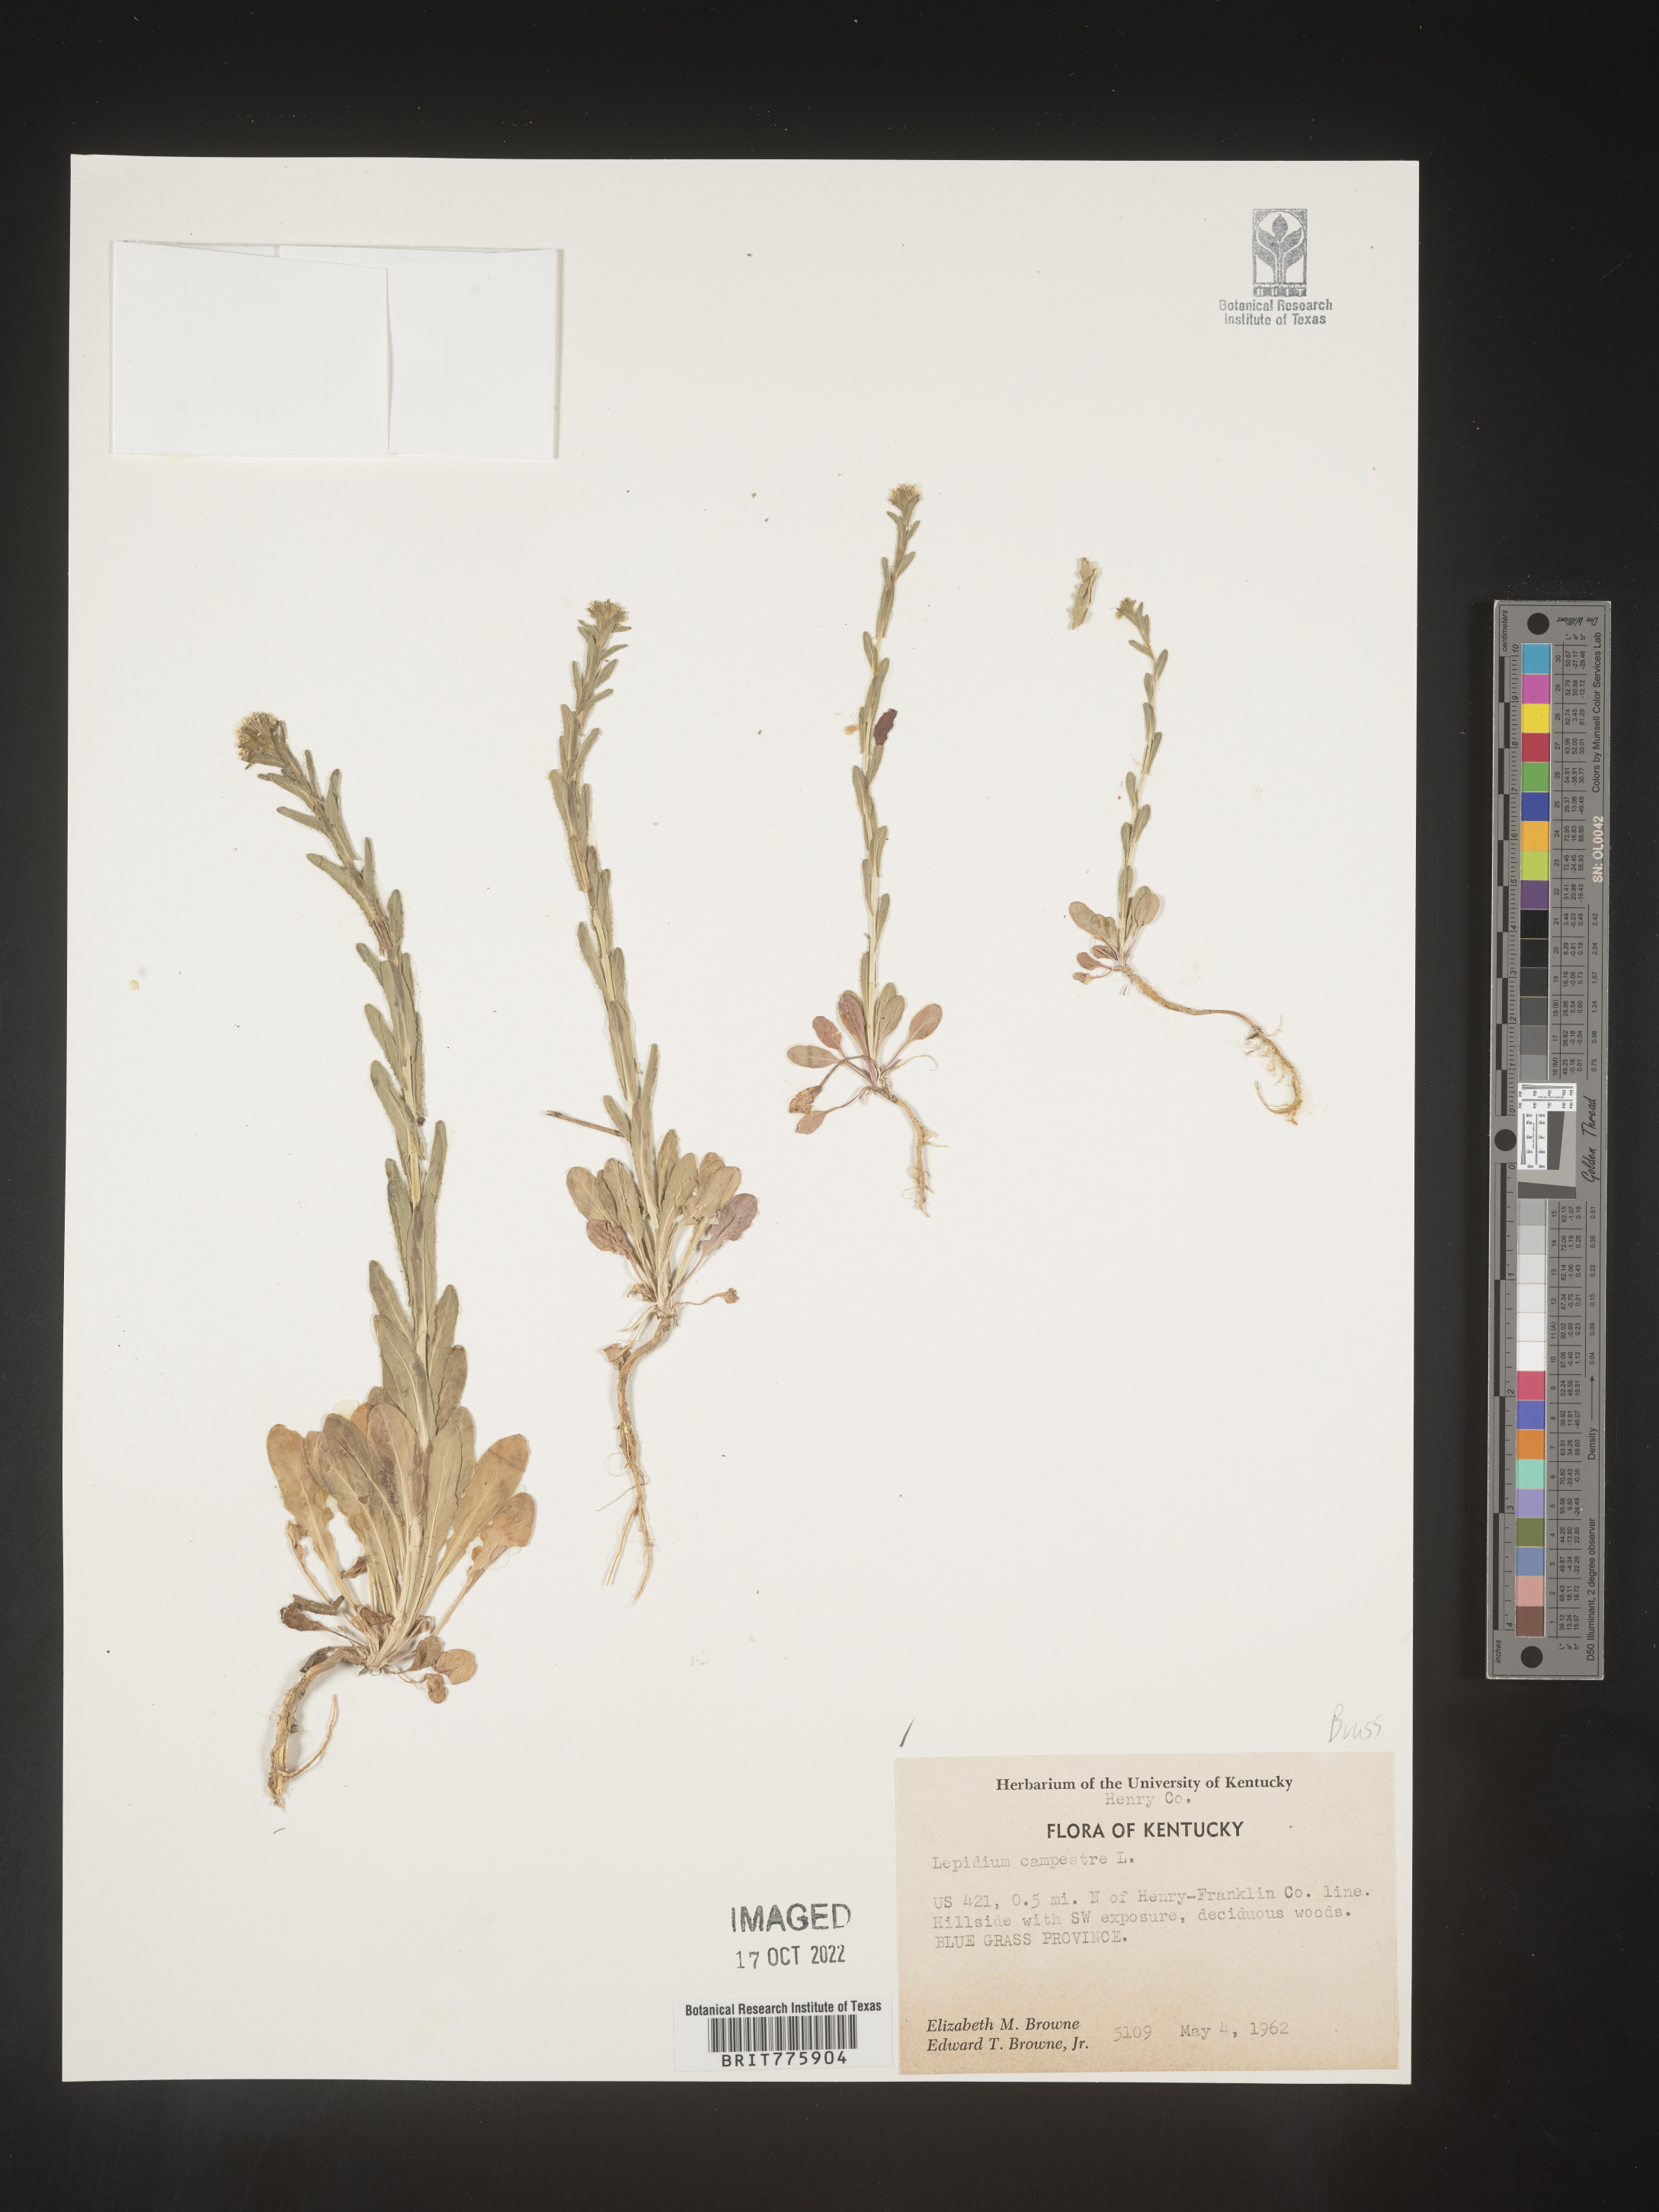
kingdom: Plantae
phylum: Tracheophyta
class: Magnoliopsida
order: Brassicales
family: Brassicaceae
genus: Lepidium
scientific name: Lepidium campestre
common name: Field pepperwort
